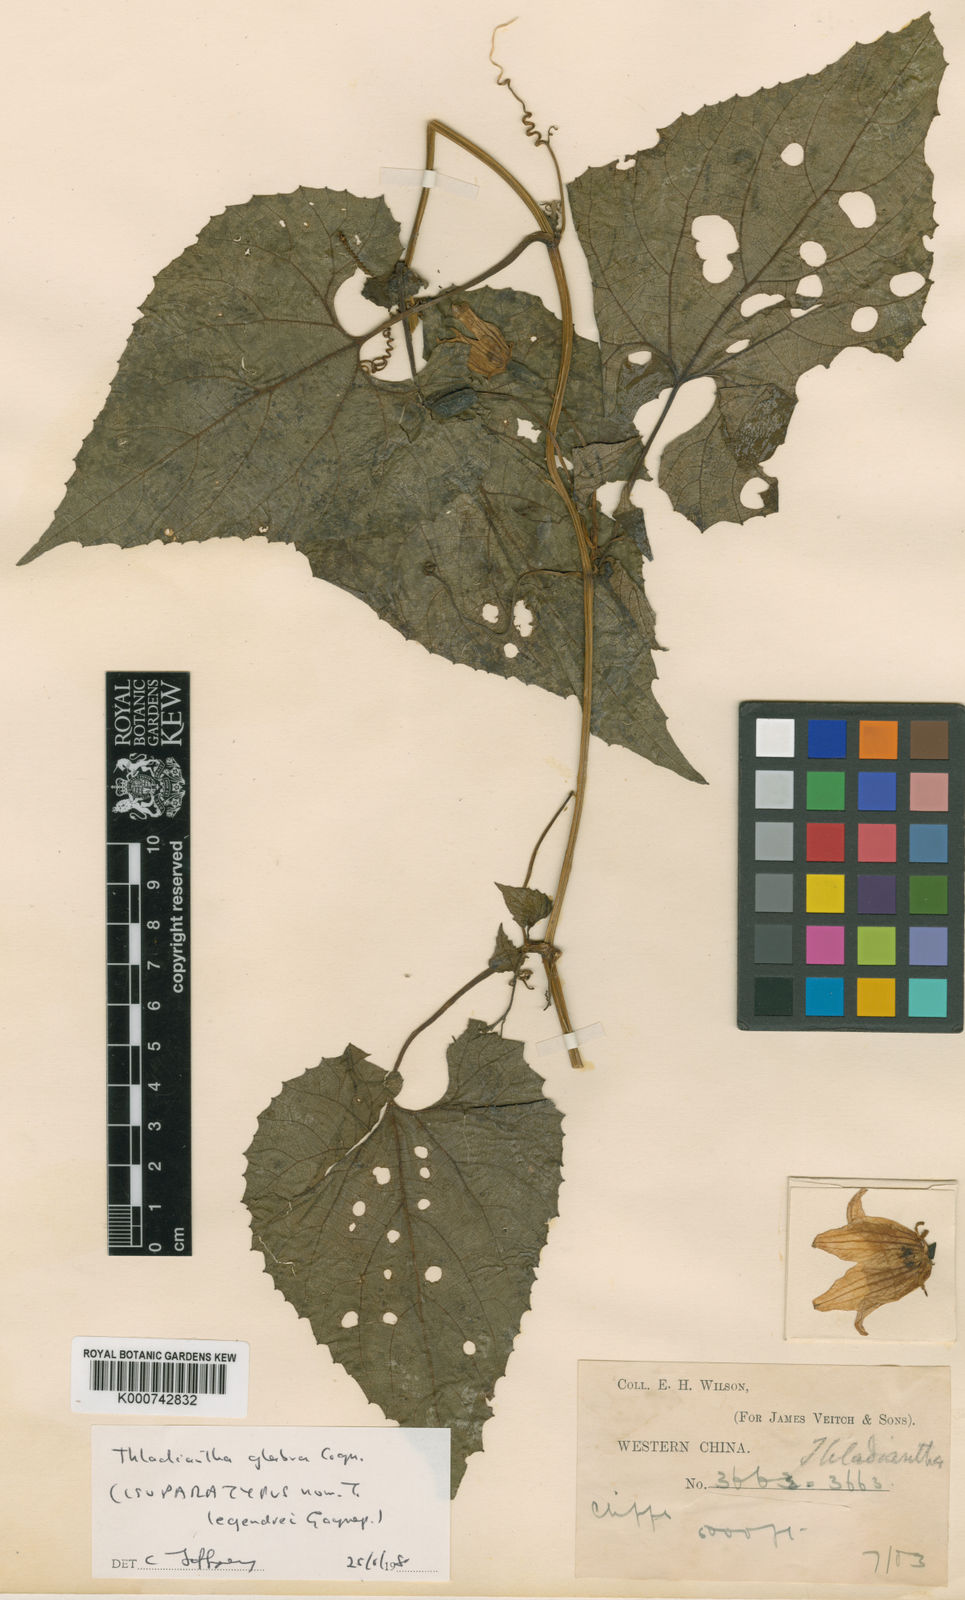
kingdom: Plantae
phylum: Tracheophyta
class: Magnoliopsida
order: Cucurbitales
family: Cucurbitaceae
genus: Thladiantha
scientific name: Thladiantha
